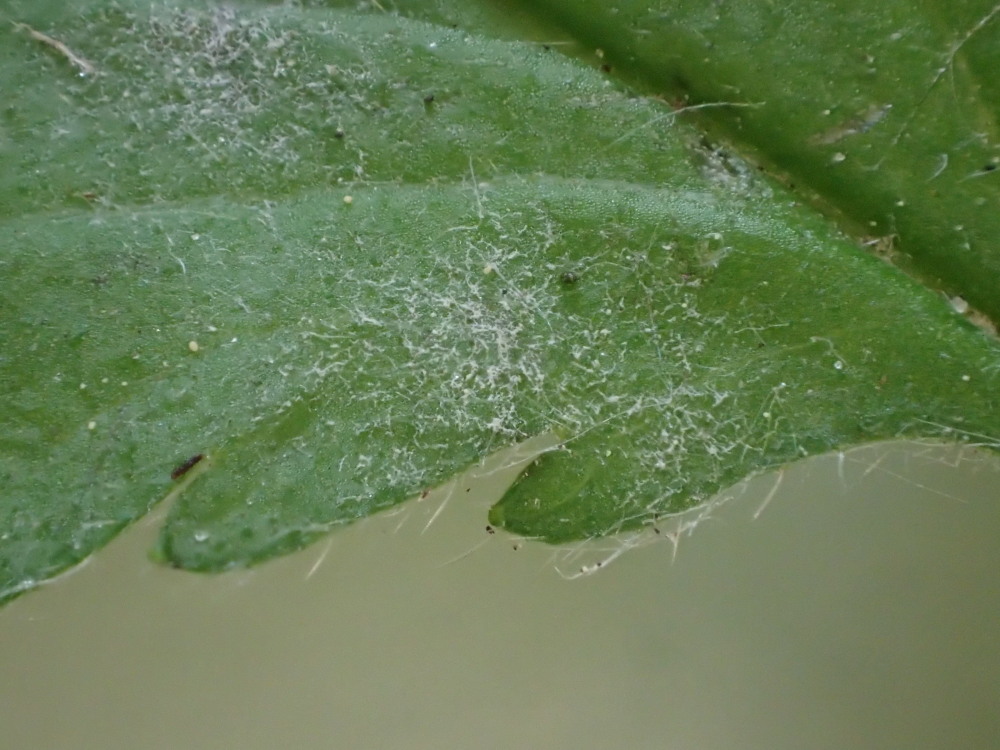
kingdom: Fungi
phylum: Ascomycota
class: Leotiomycetes
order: Helotiales
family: Erysiphaceae
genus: Podosphaera
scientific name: Podosphaera aphanis
